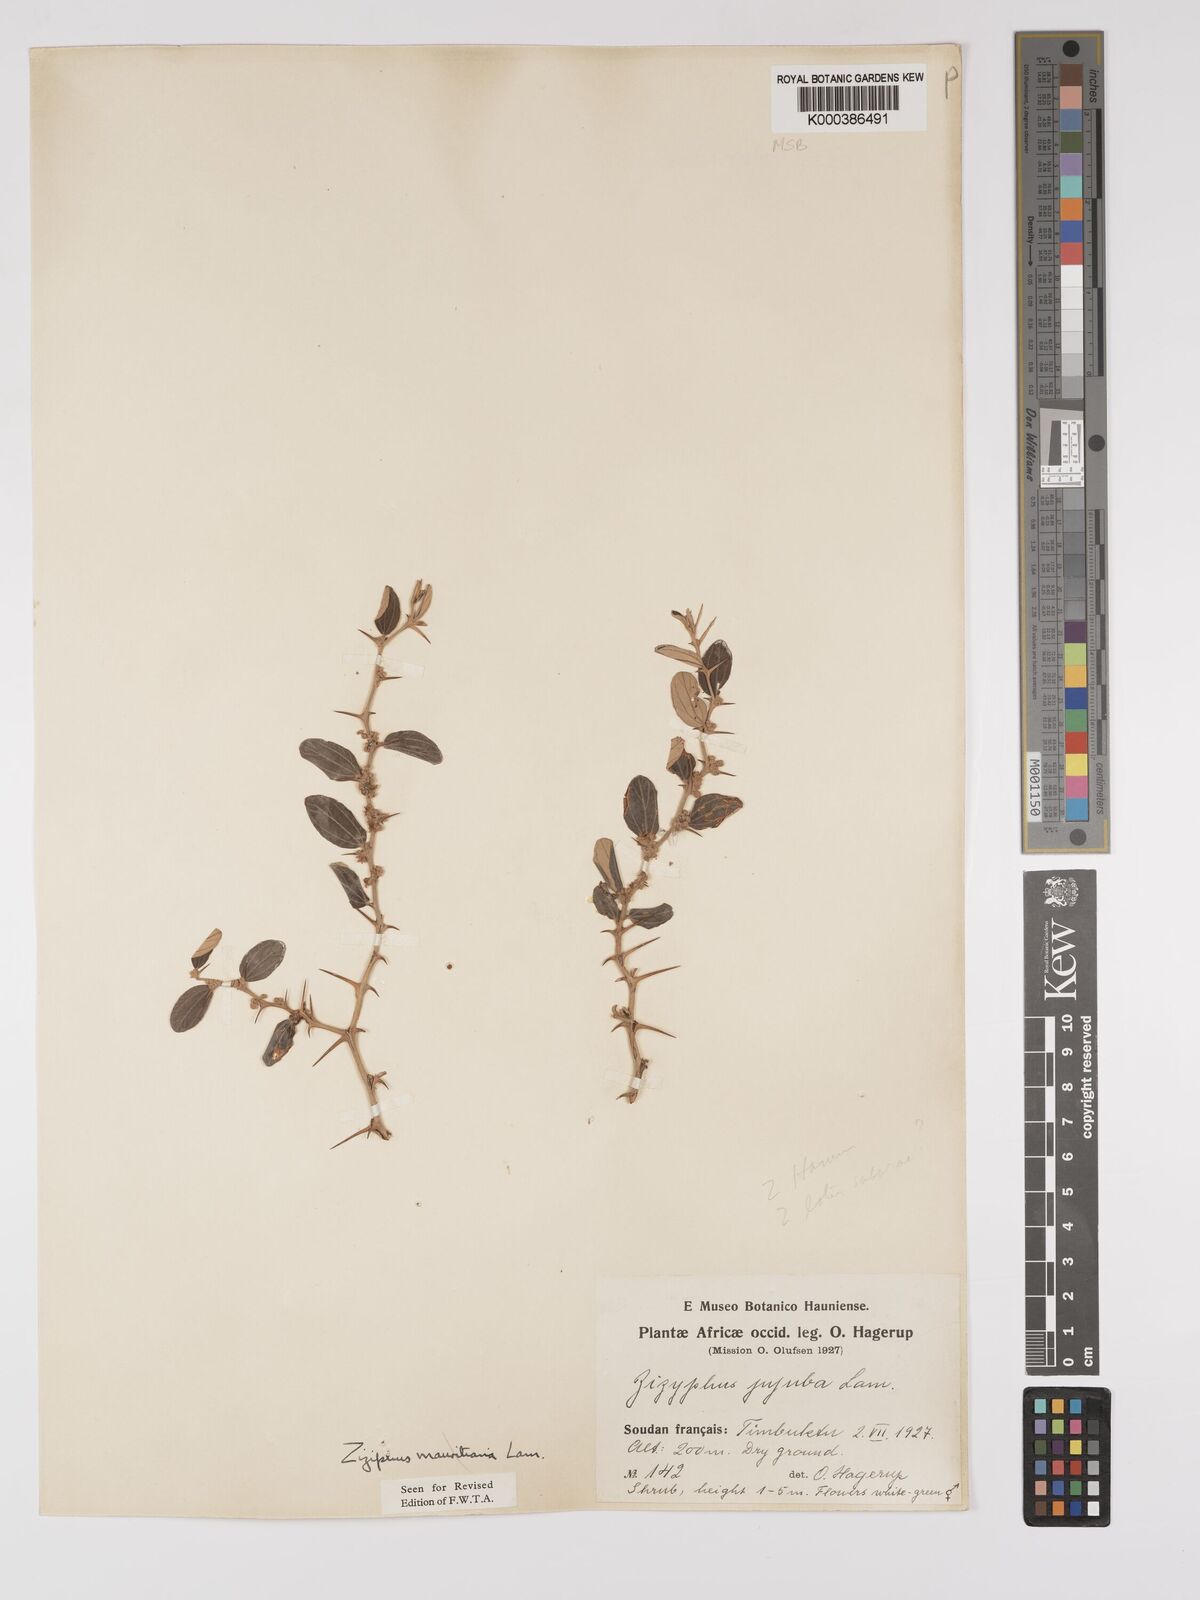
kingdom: Plantae
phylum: Tracheophyta
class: Magnoliopsida
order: Rosales
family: Rhamnaceae
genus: Ziziphus
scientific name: Ziziphus mauritiana
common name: Indian jujube
